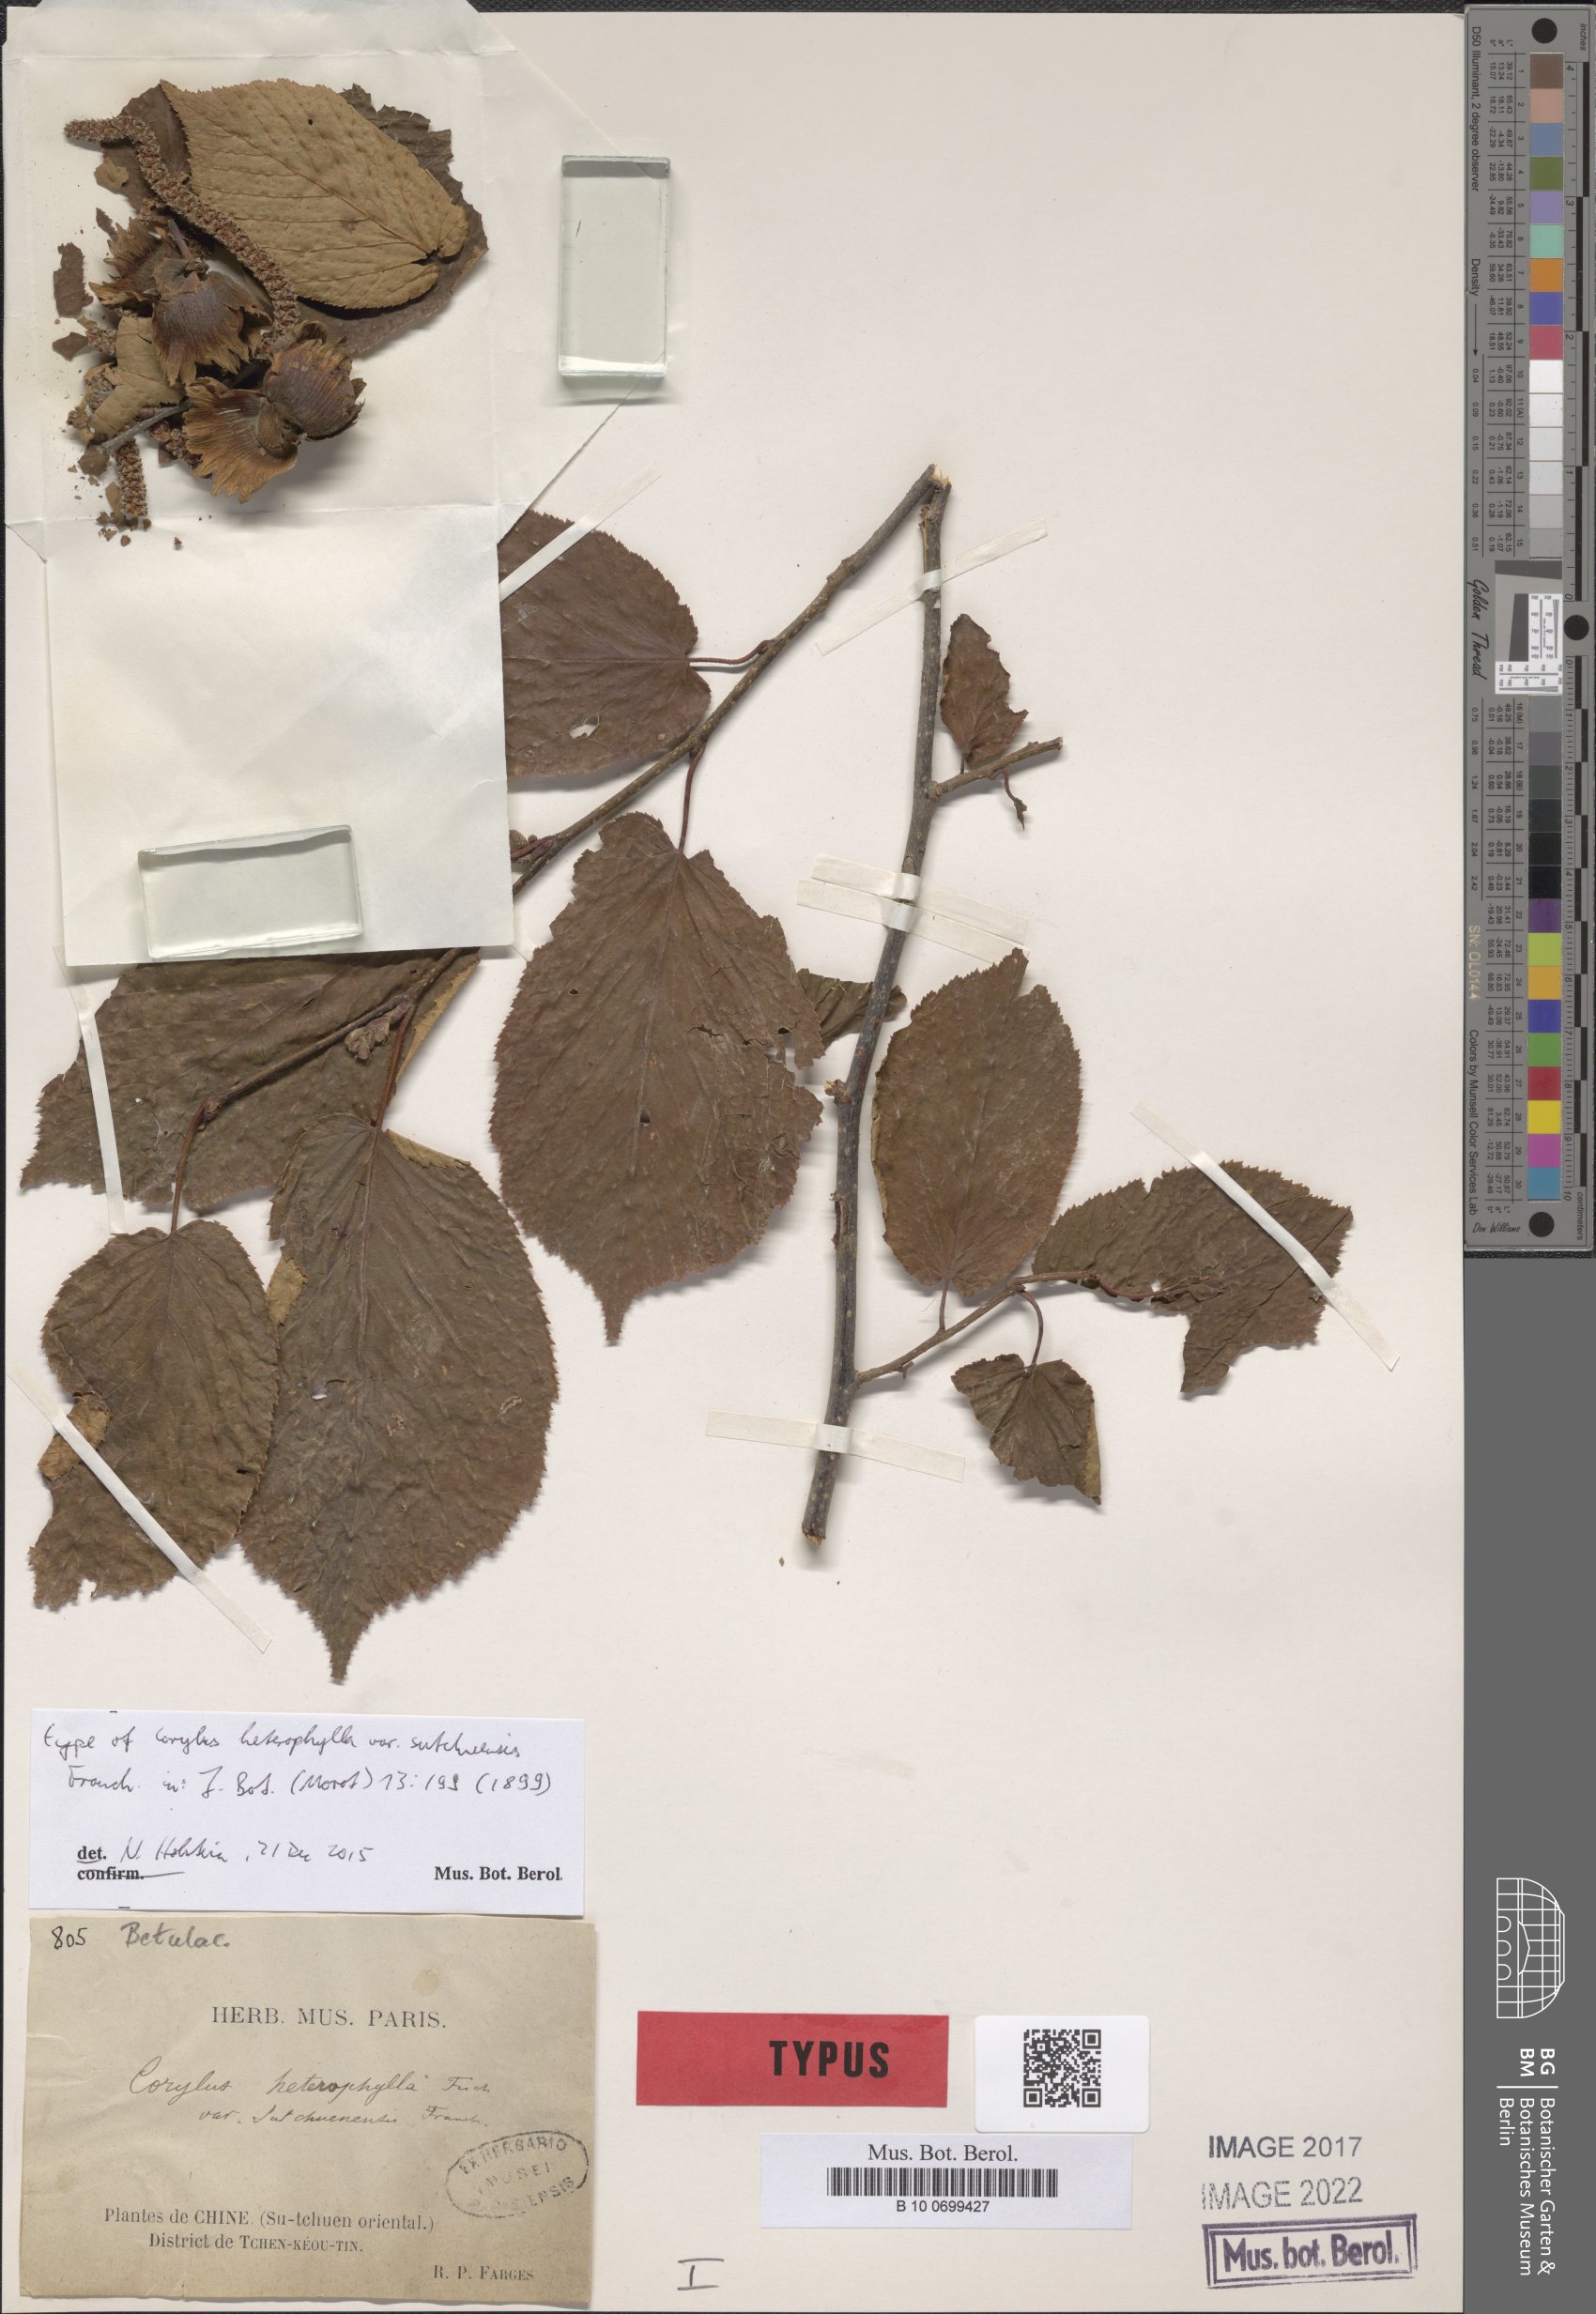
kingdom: Plantae
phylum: Tracheophyta
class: Magnoliopsida
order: Fagales
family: Betulaceae
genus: Corylus
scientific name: Corylus heterophylla
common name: Siberian hazelnut
